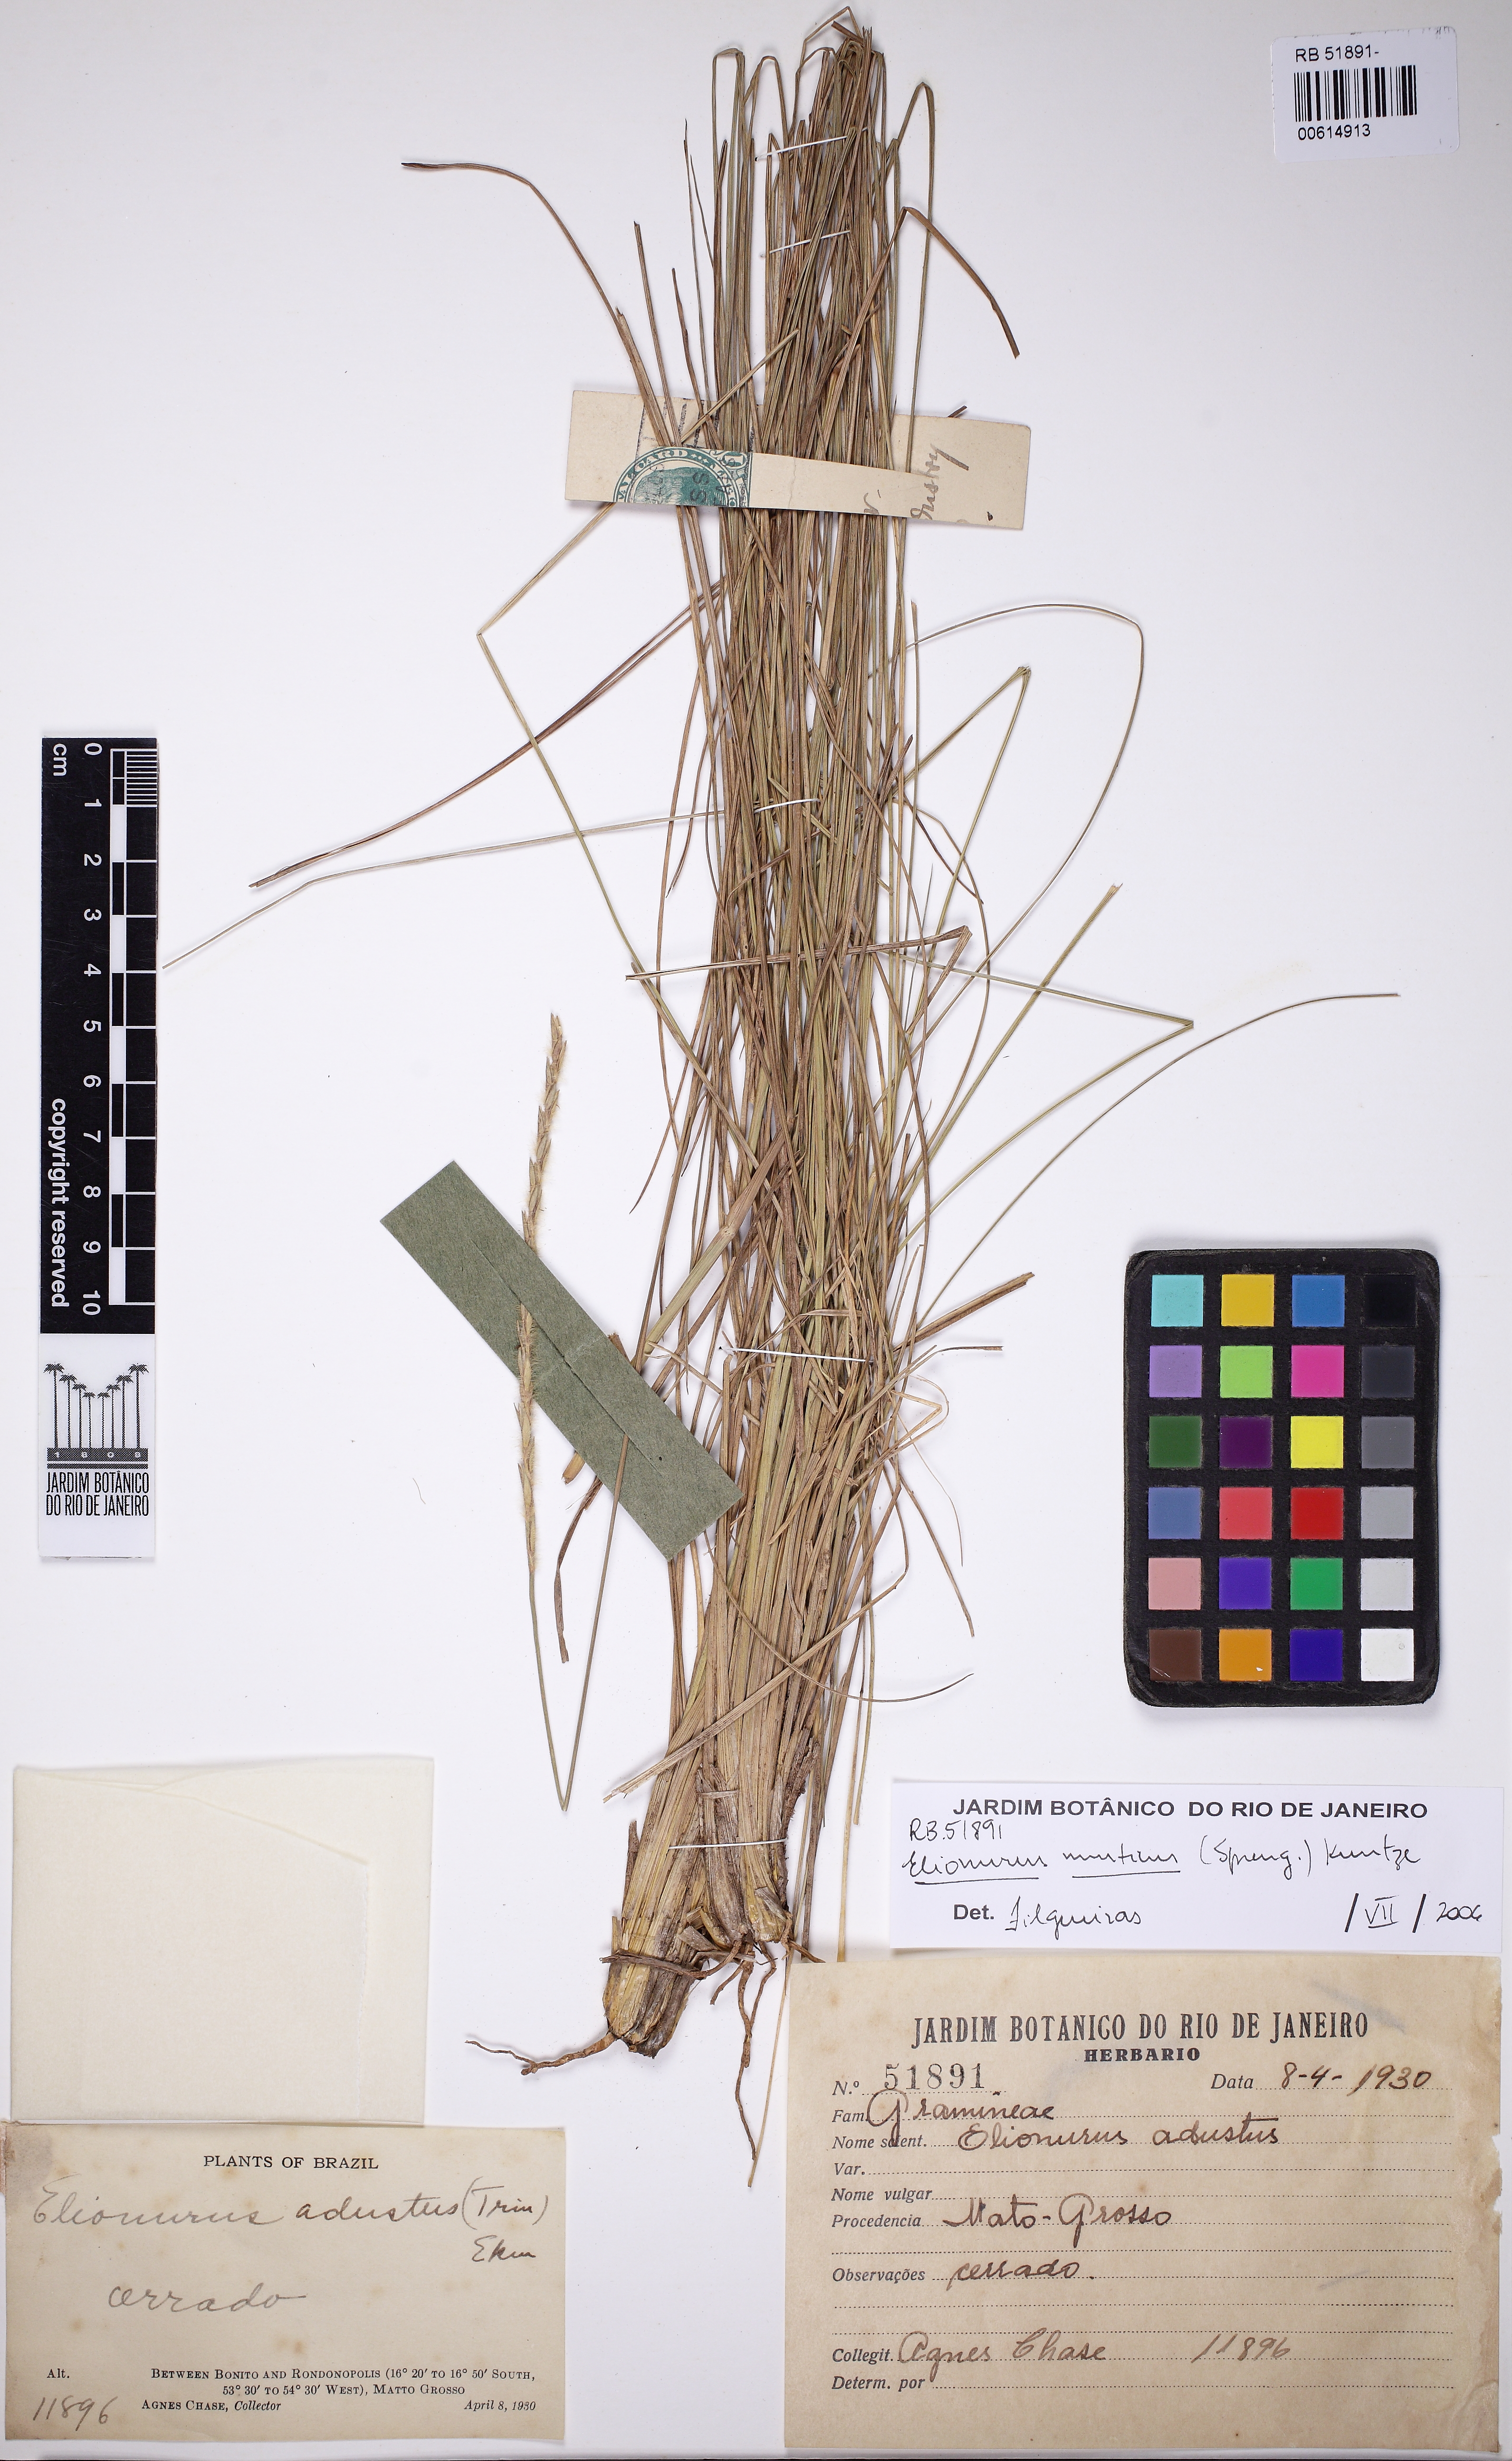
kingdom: Plantae
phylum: Tracheophyta
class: Liliopsida
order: Poales
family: Poaceae
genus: Elionurus
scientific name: Elionurus muticus
